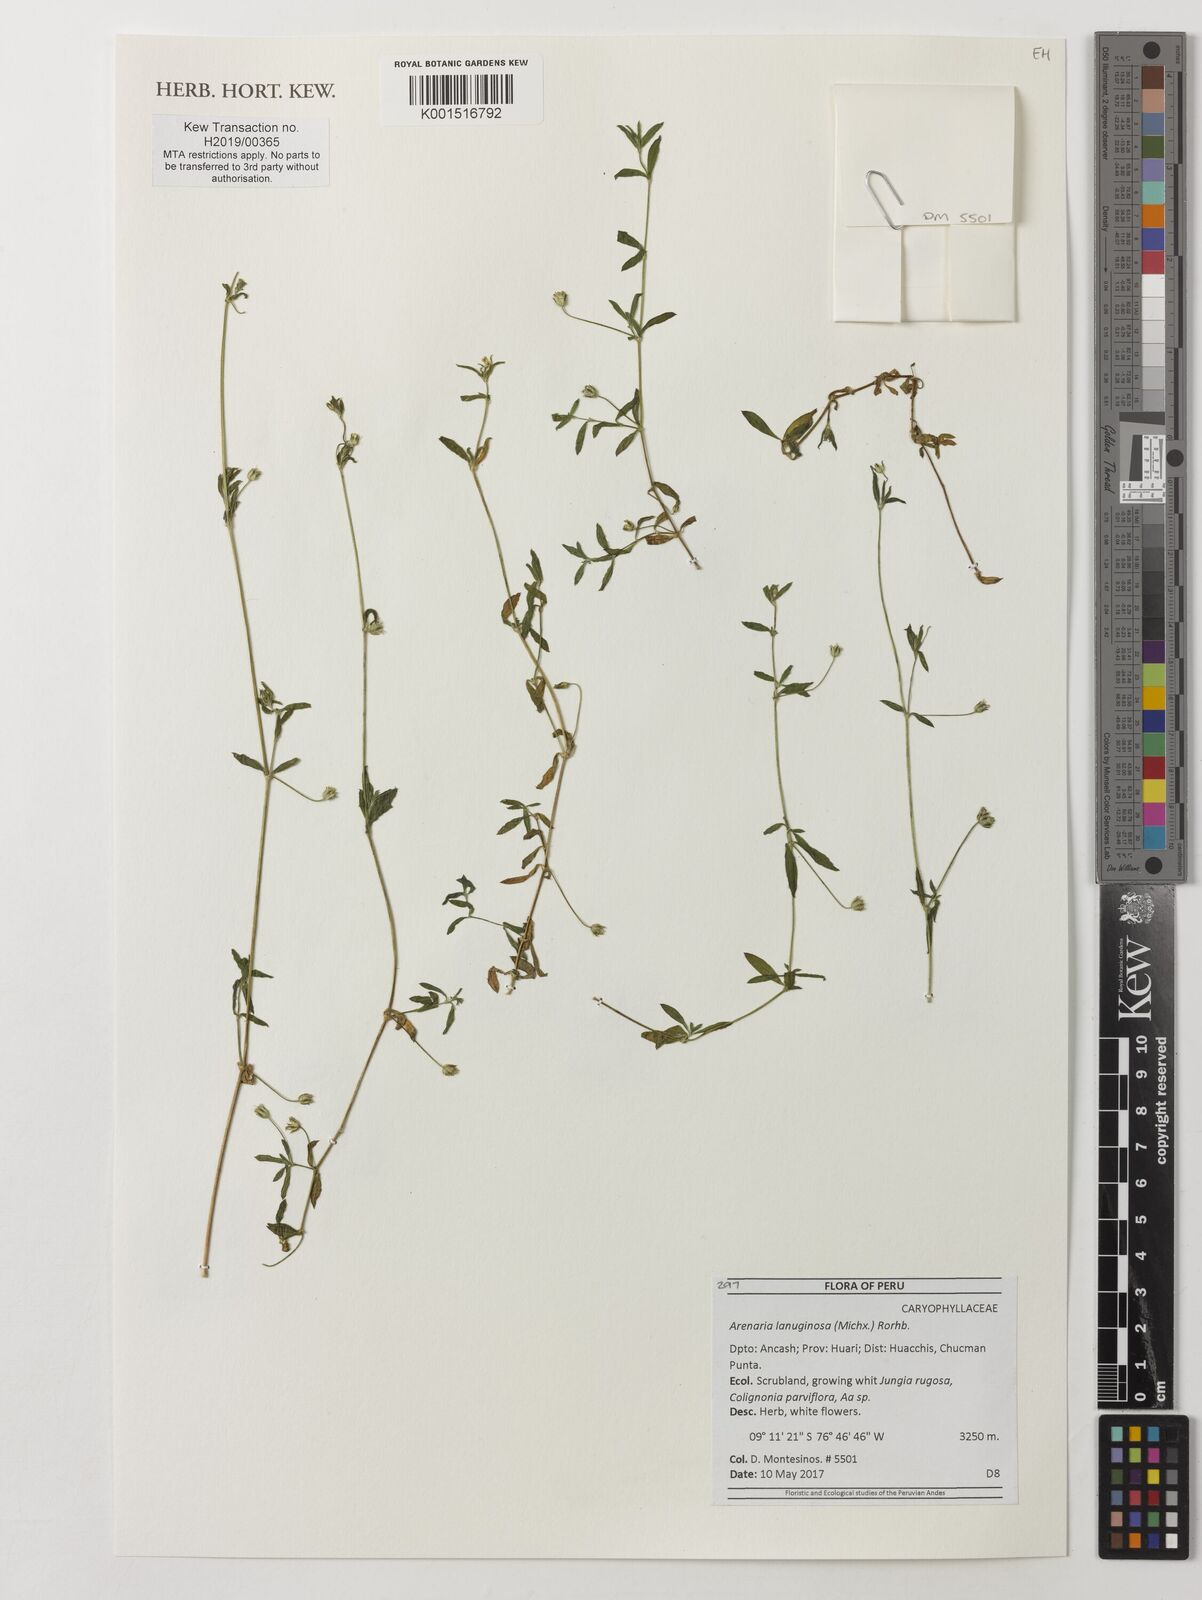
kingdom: Plantae
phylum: Tracheophyta
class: Magnoliopsida
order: Caryophyllales
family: Caryophyllaceae
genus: Arenaria
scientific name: Arenaria lanuginosa
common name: Spread sandwort
